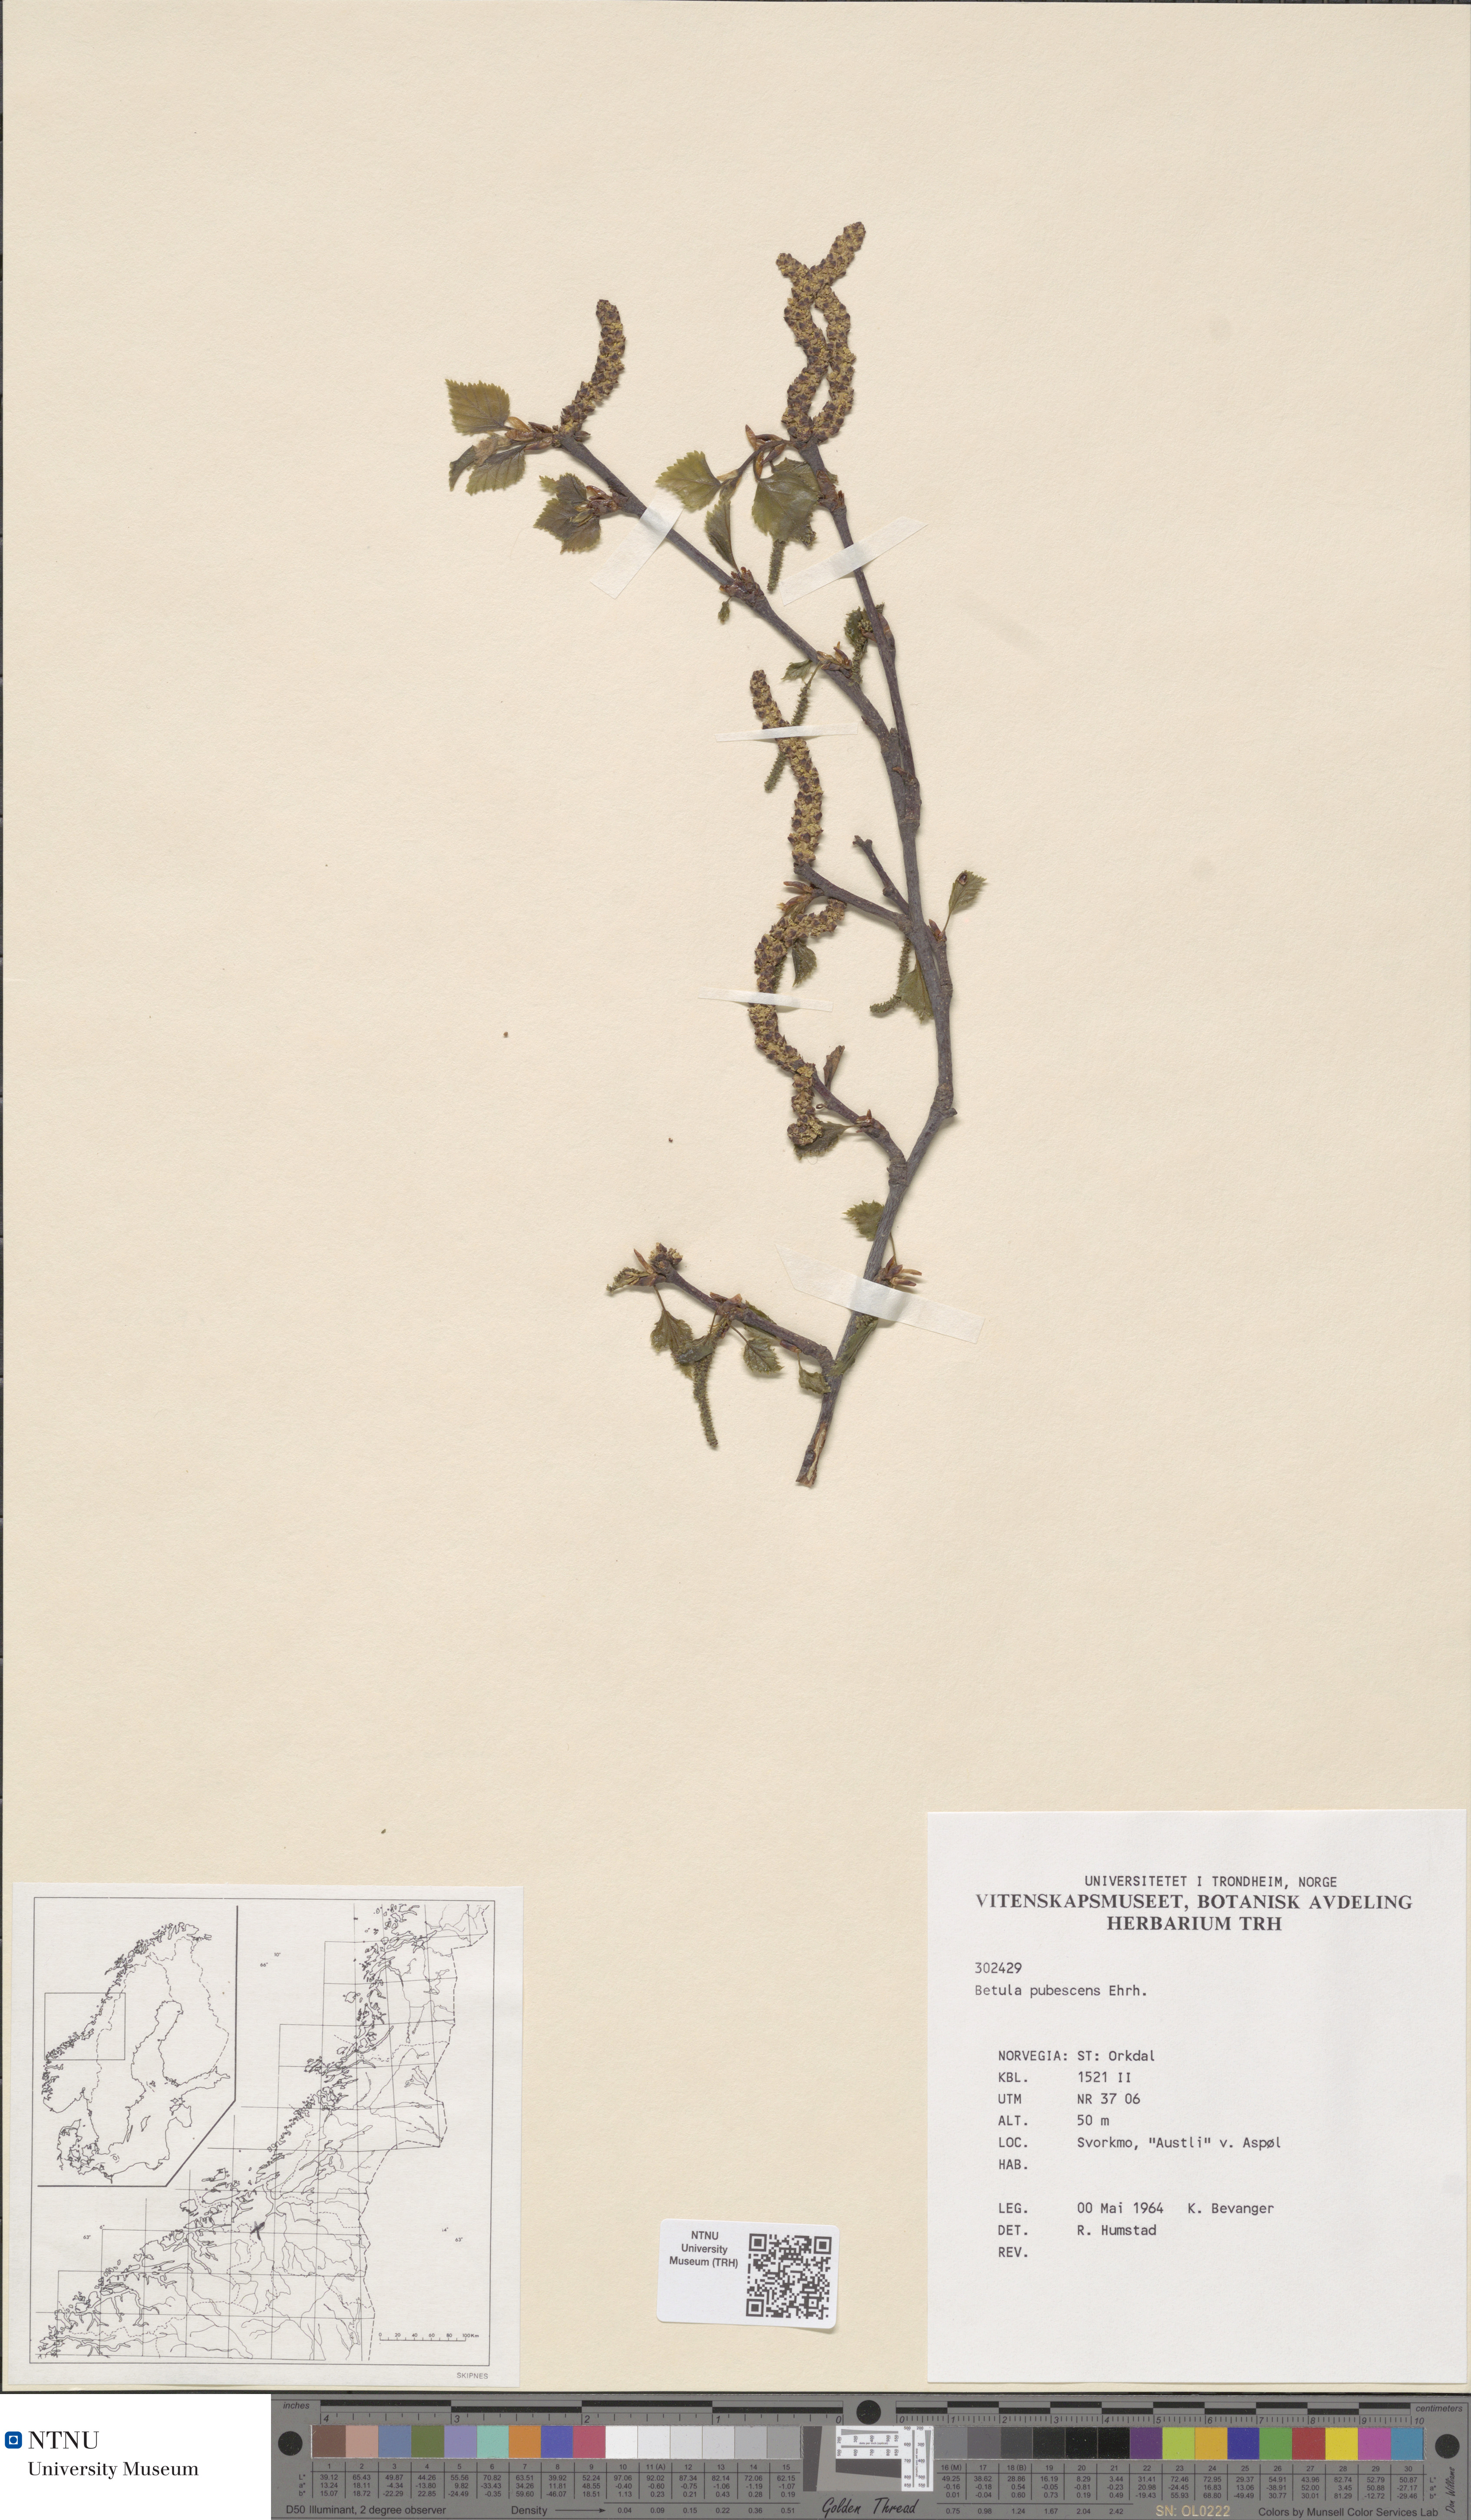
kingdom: Plantae
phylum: Tracheophyta
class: Magnoliopsida
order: Fagales
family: Betulaceae
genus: Betula
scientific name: Betula pubescens
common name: Downy birch
